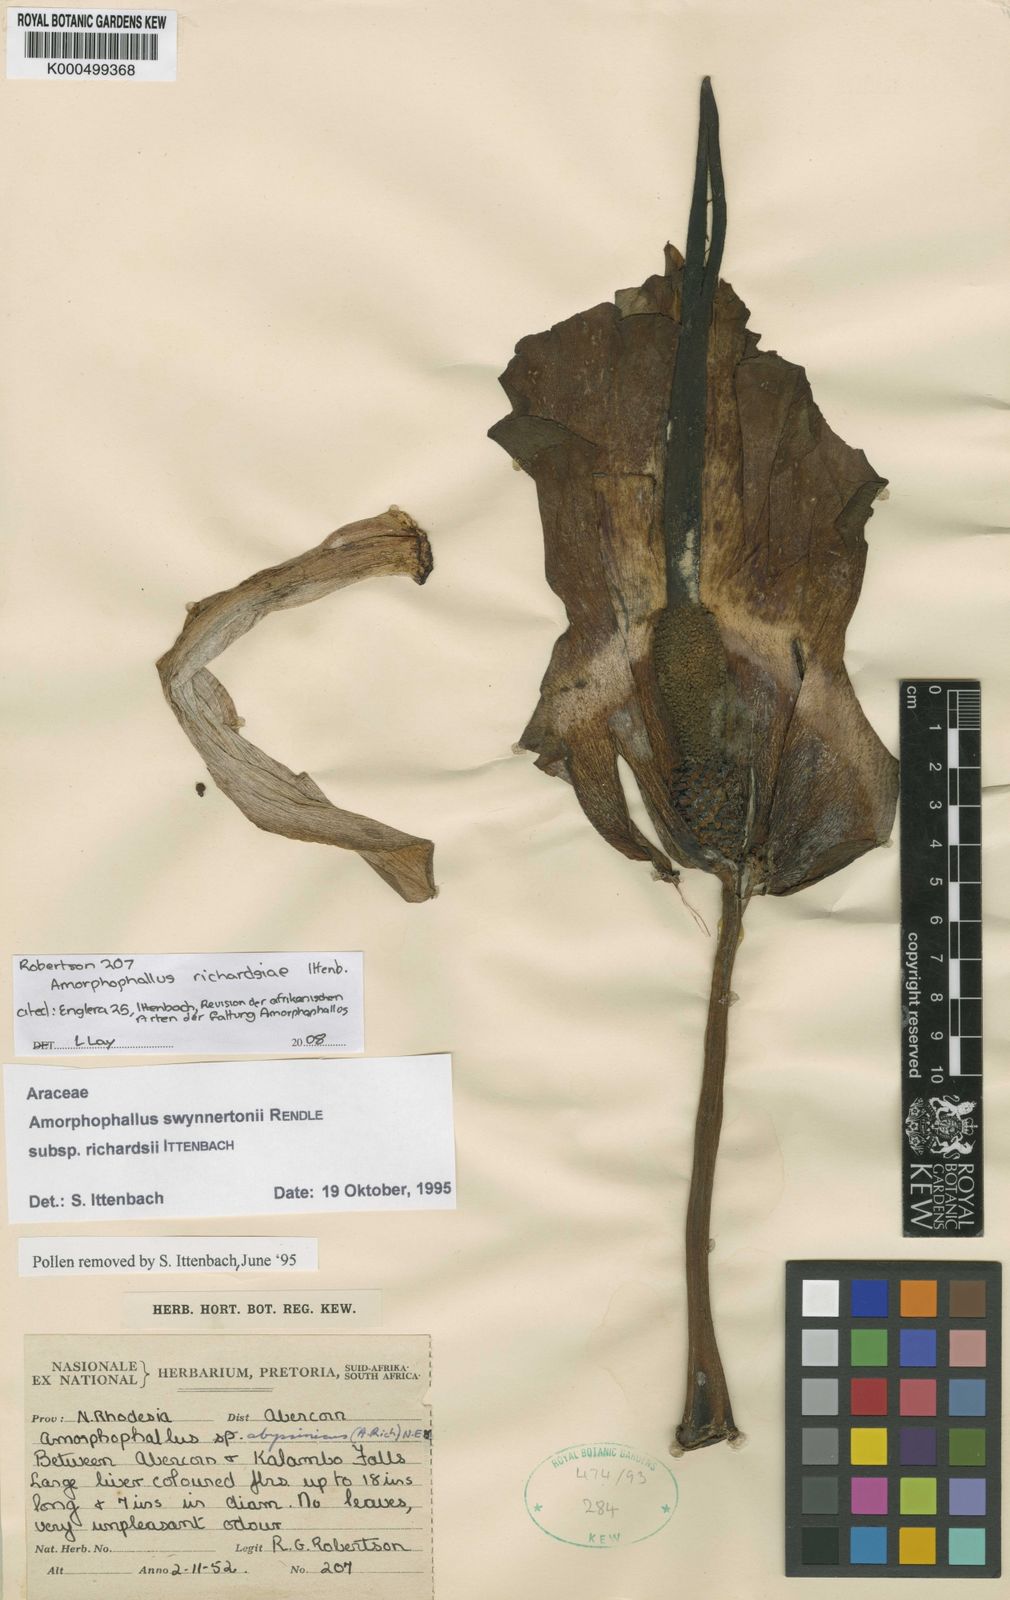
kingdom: Plantae
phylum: Tracheophyta
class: Liliopsida
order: Alismatales
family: Araceae
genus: Amorphophallus
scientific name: Amorphophallus richardsiae
